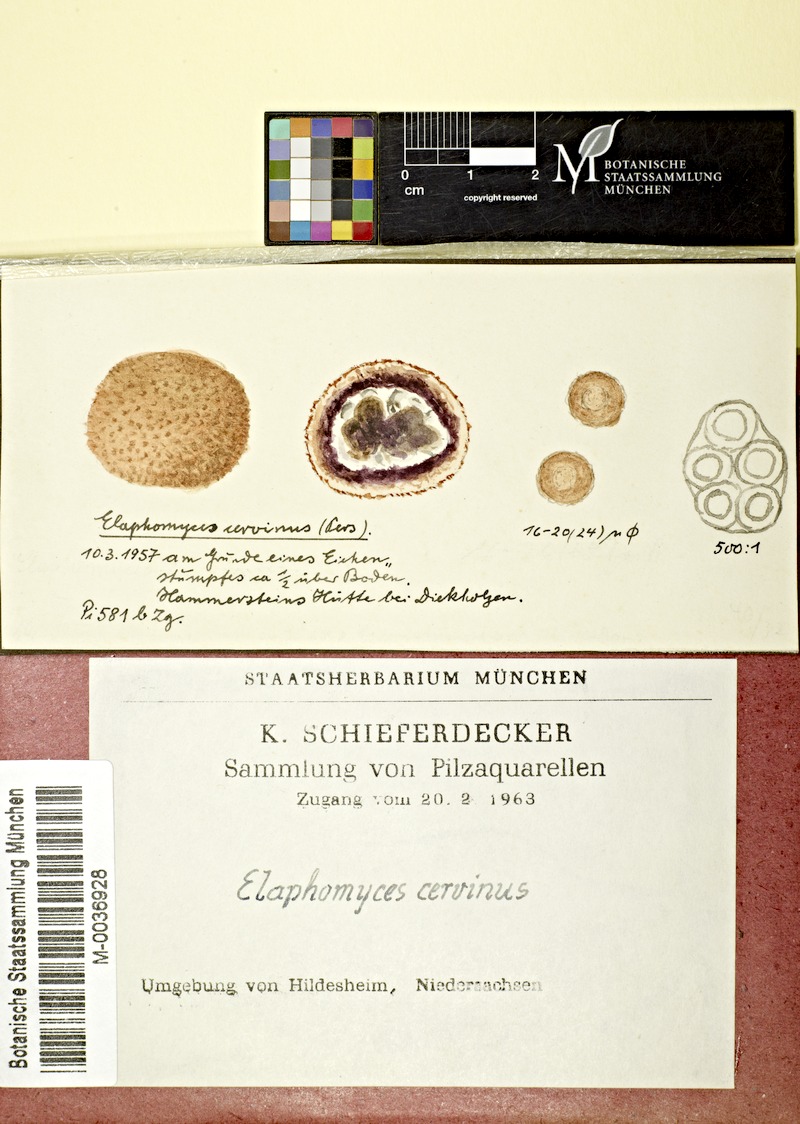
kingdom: Plantae
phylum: Tracheophyta
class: Magnoliopsida
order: Fagales
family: Fagaceae
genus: Quercus
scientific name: Quercus
